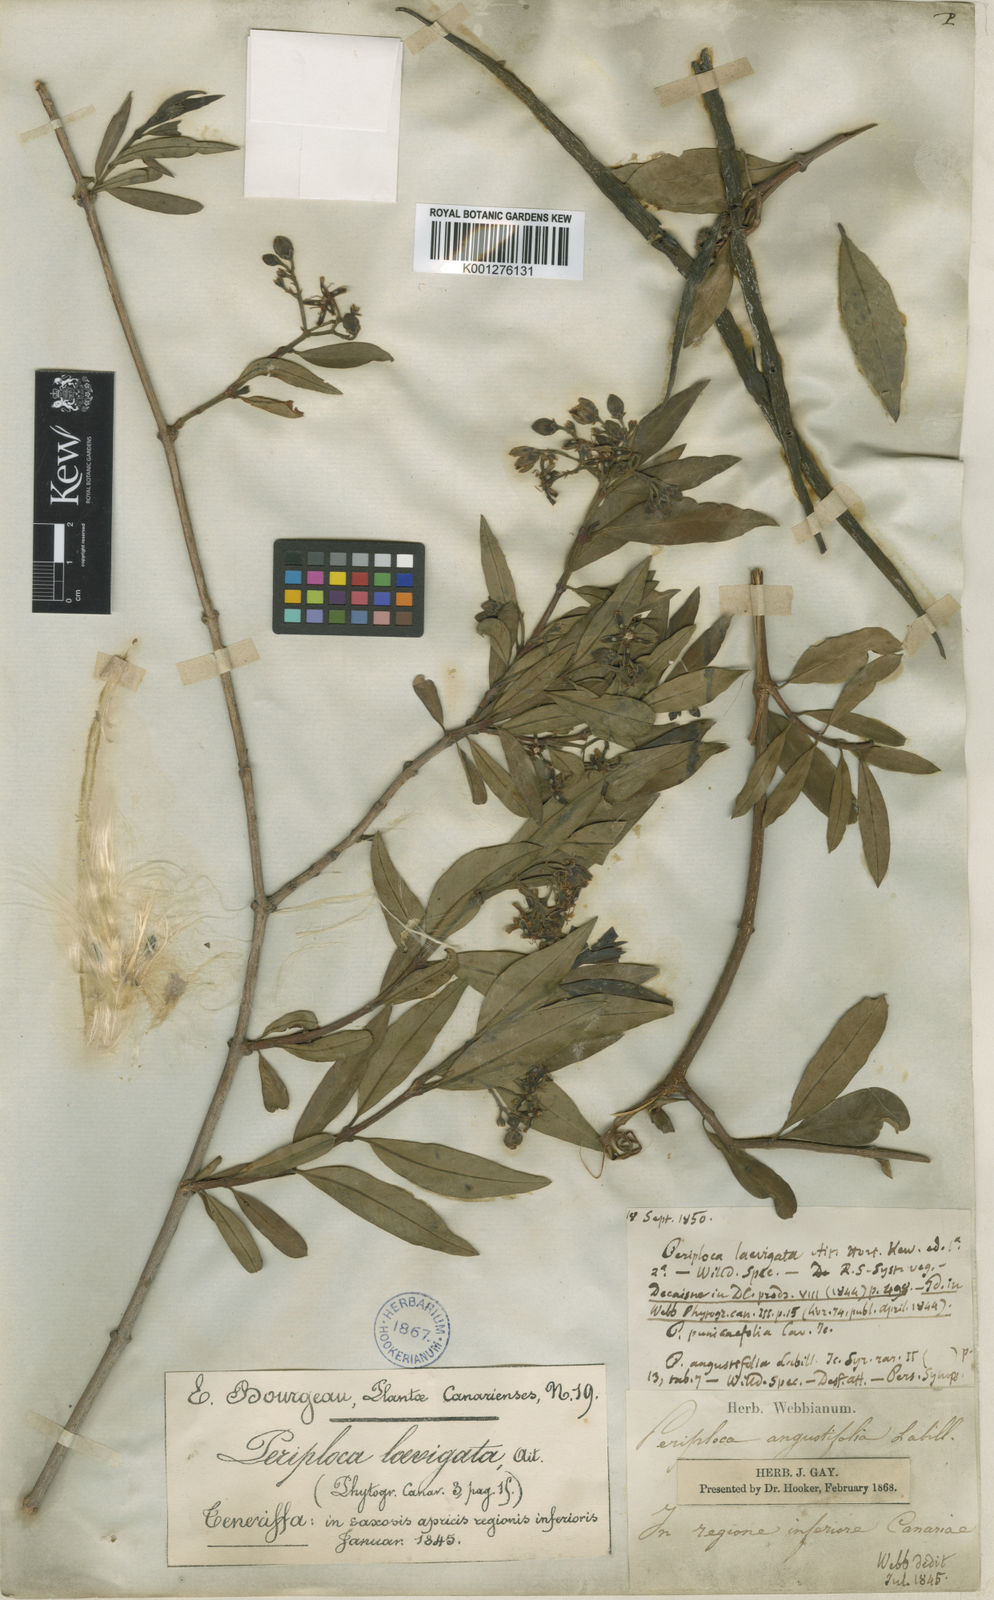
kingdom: Plantae
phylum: Tracheophyta
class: Magnoliopsida
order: Gentianales
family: Apocynaceae
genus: Periploca
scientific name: Periploca laevigata
